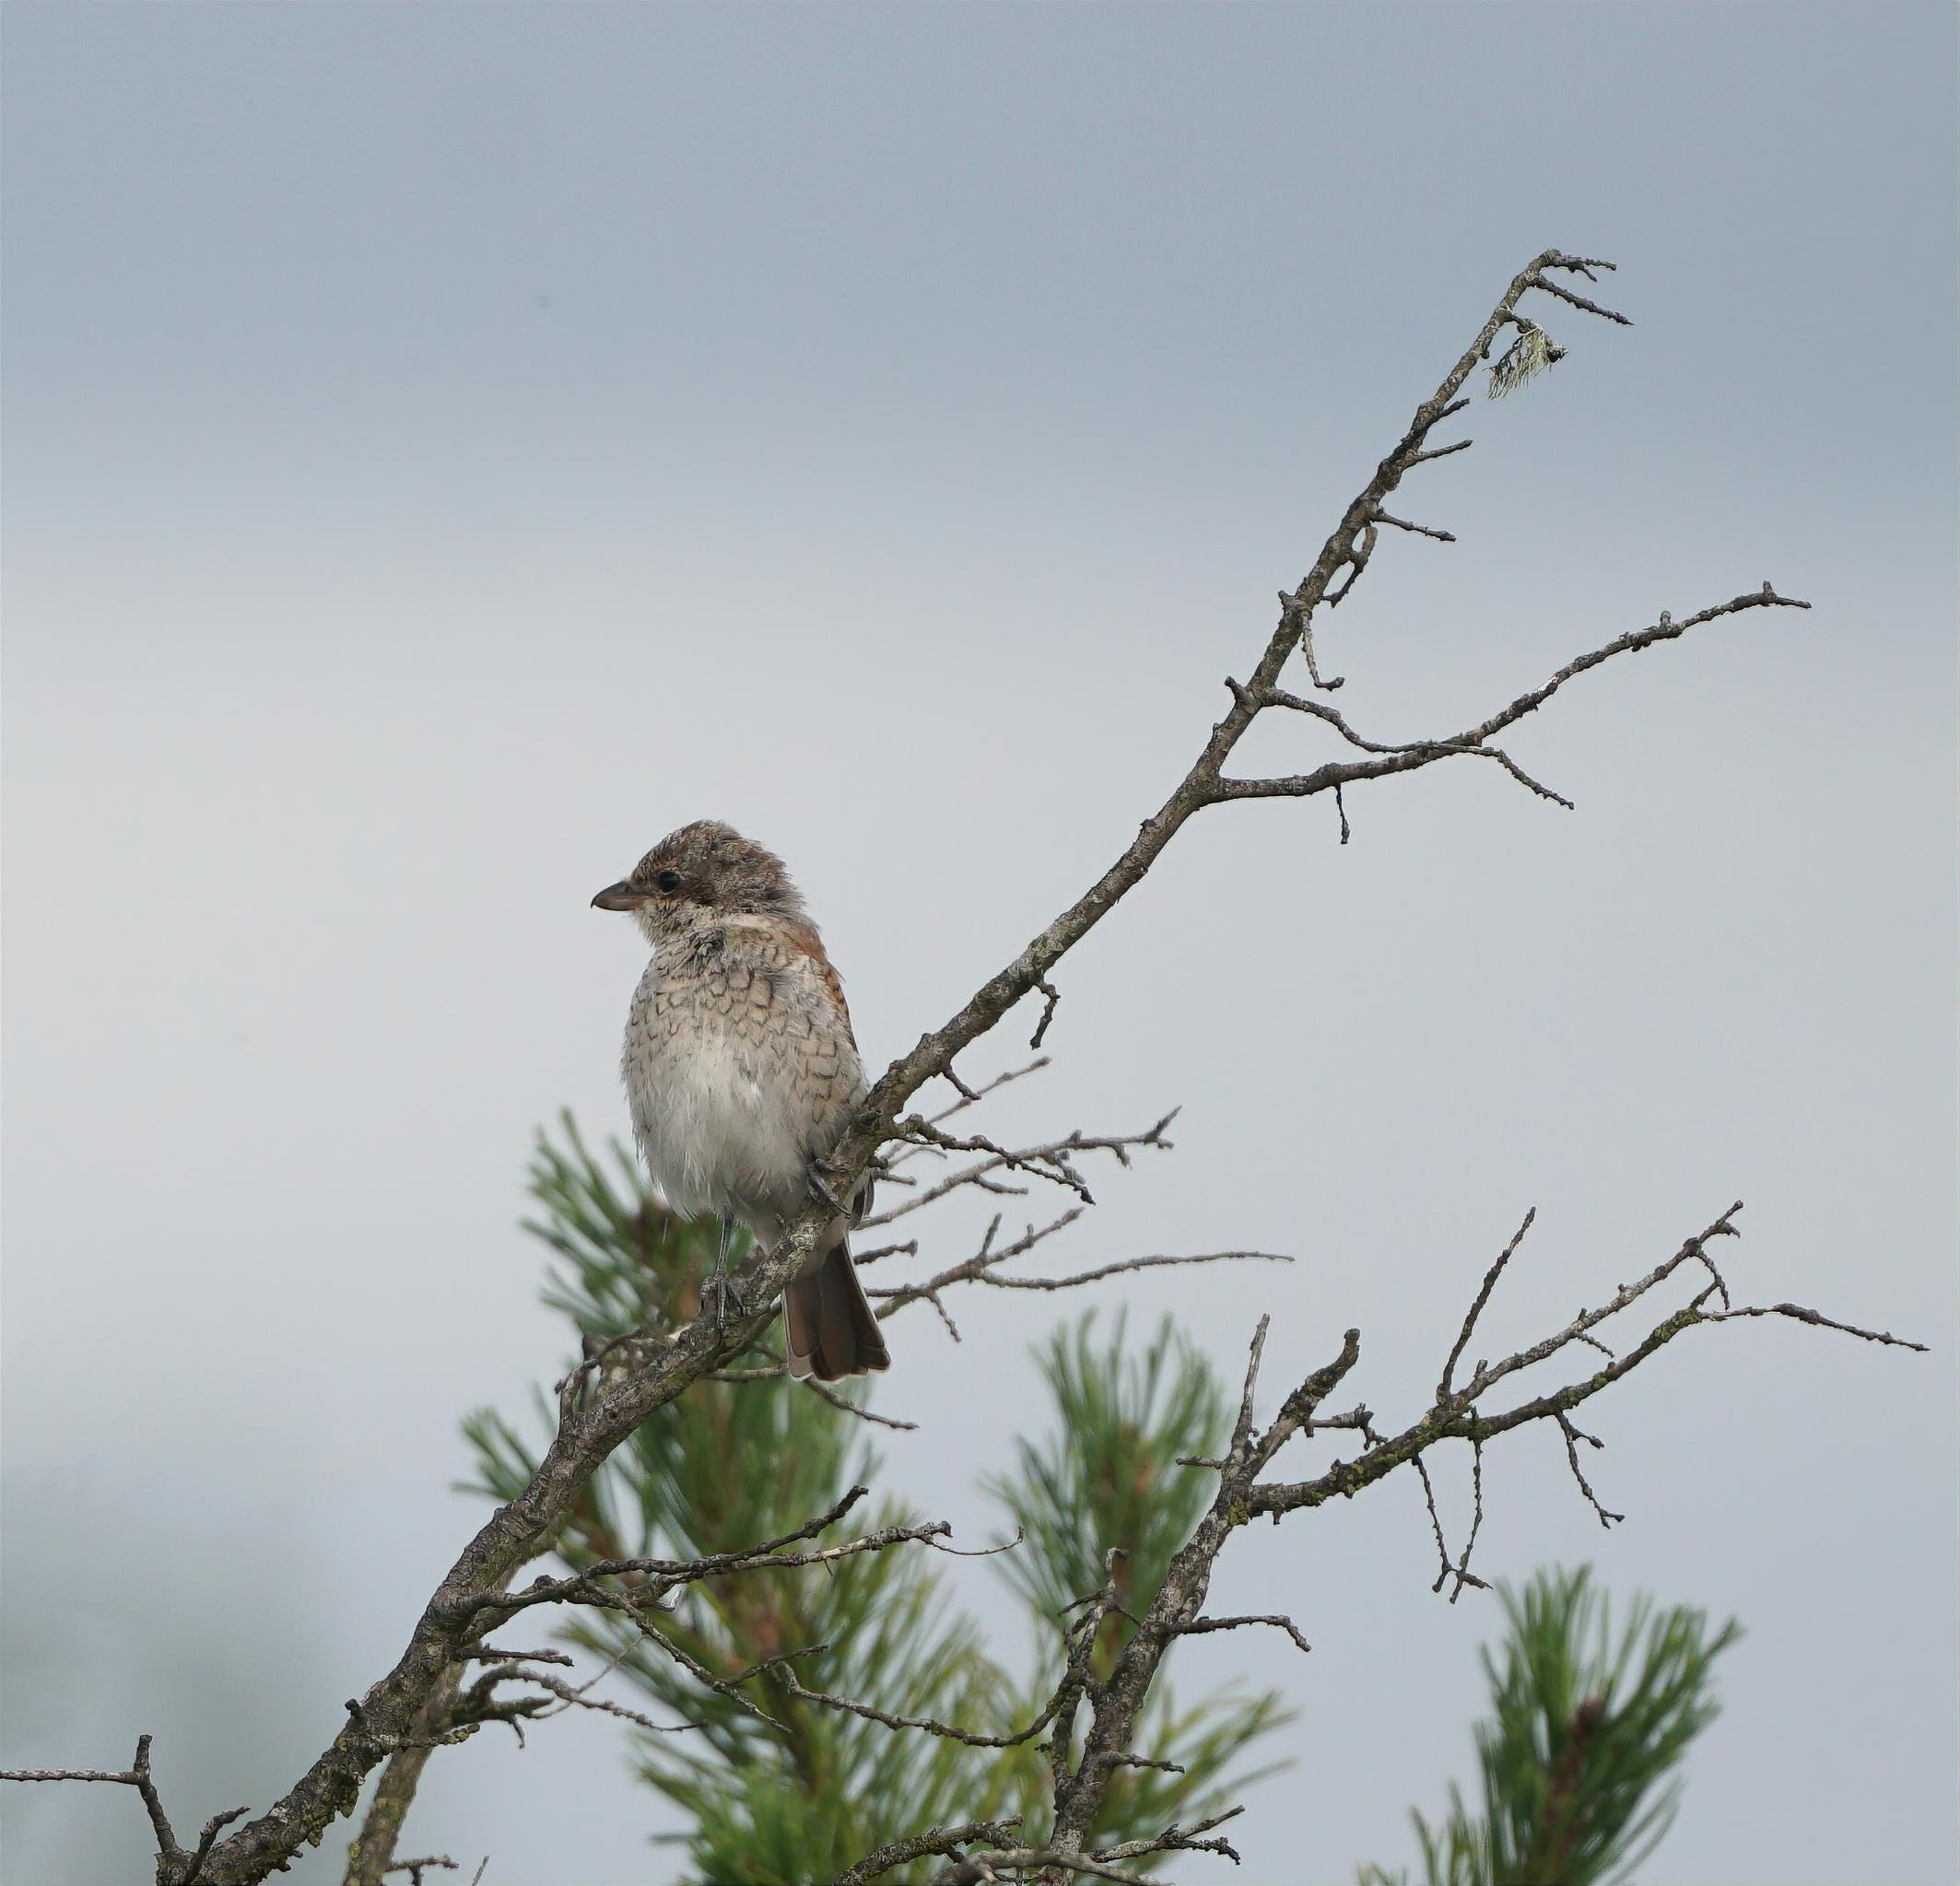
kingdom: Animalia
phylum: Chordata
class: Aves
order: Passeriformes
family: Laniidae
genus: Lanius
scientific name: Lanius collurio
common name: Rødrygget tornskade
